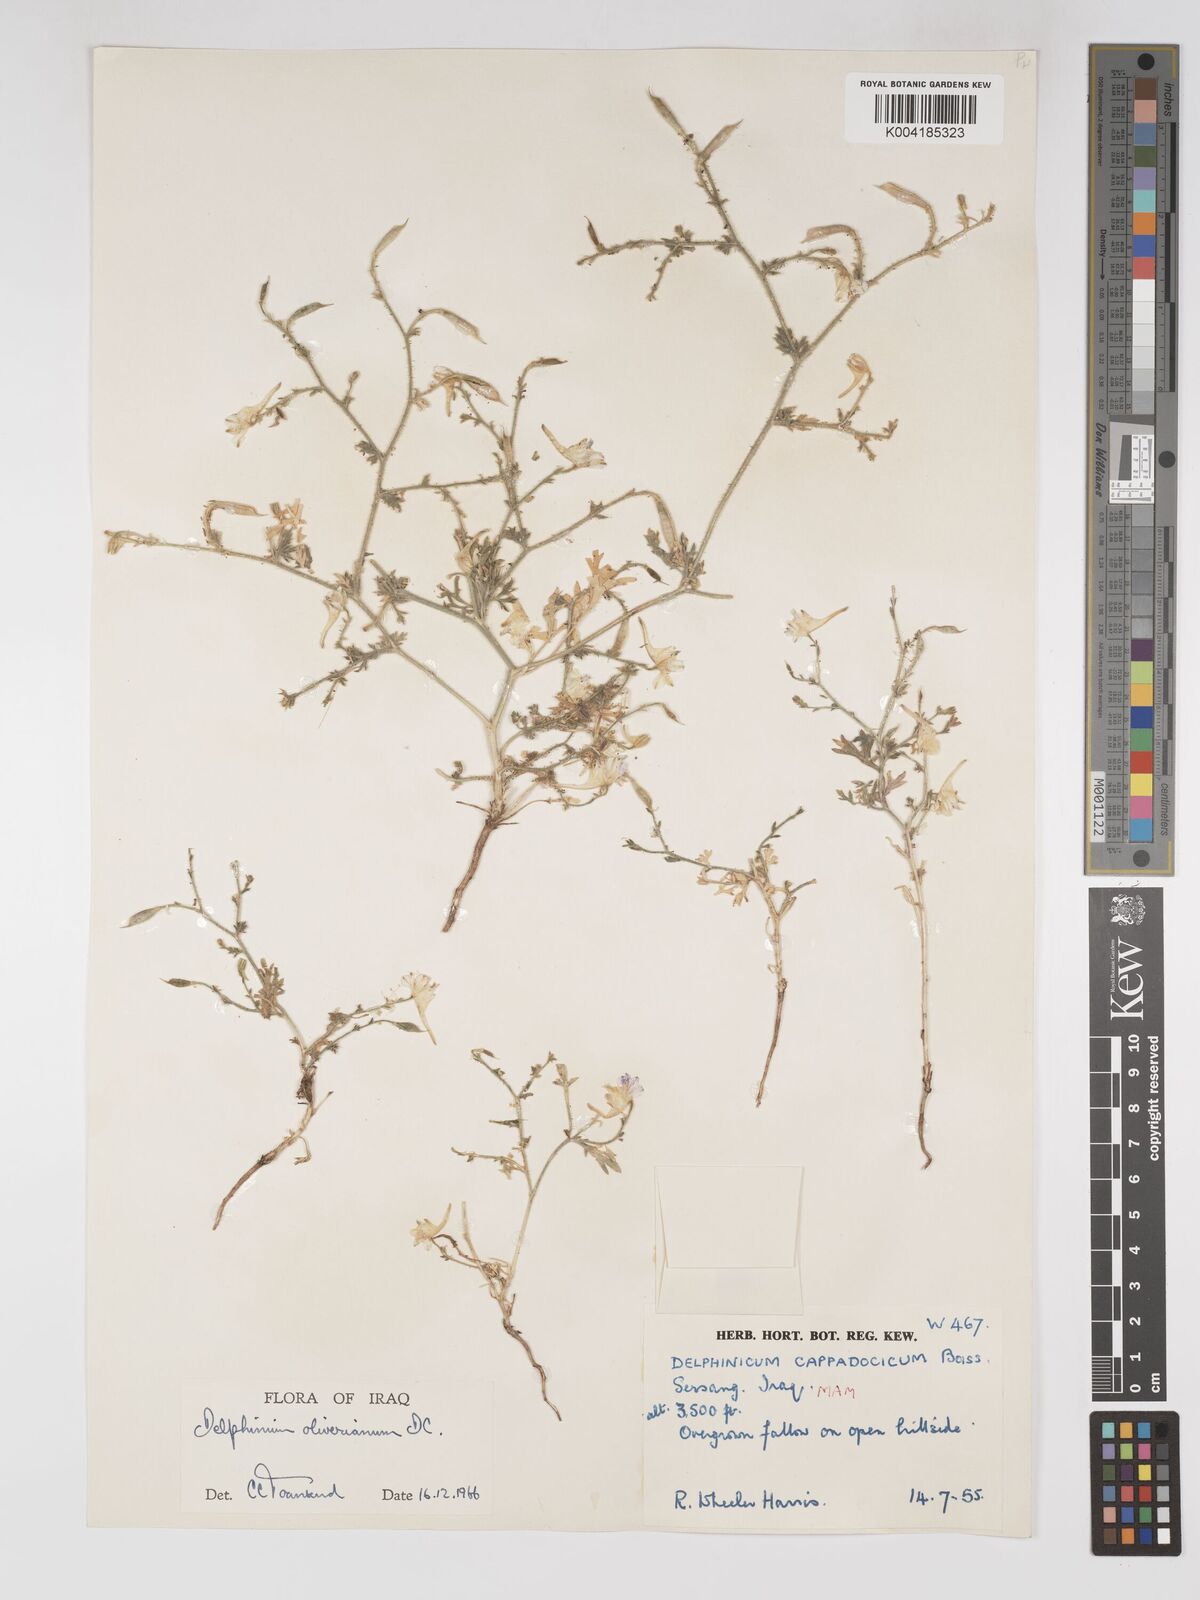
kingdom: Plantae
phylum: Tracheophyta
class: Magnoliopsida
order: Ranunculales
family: Ranunculaceae
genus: Delphinium
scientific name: Delphinium oliverianum
